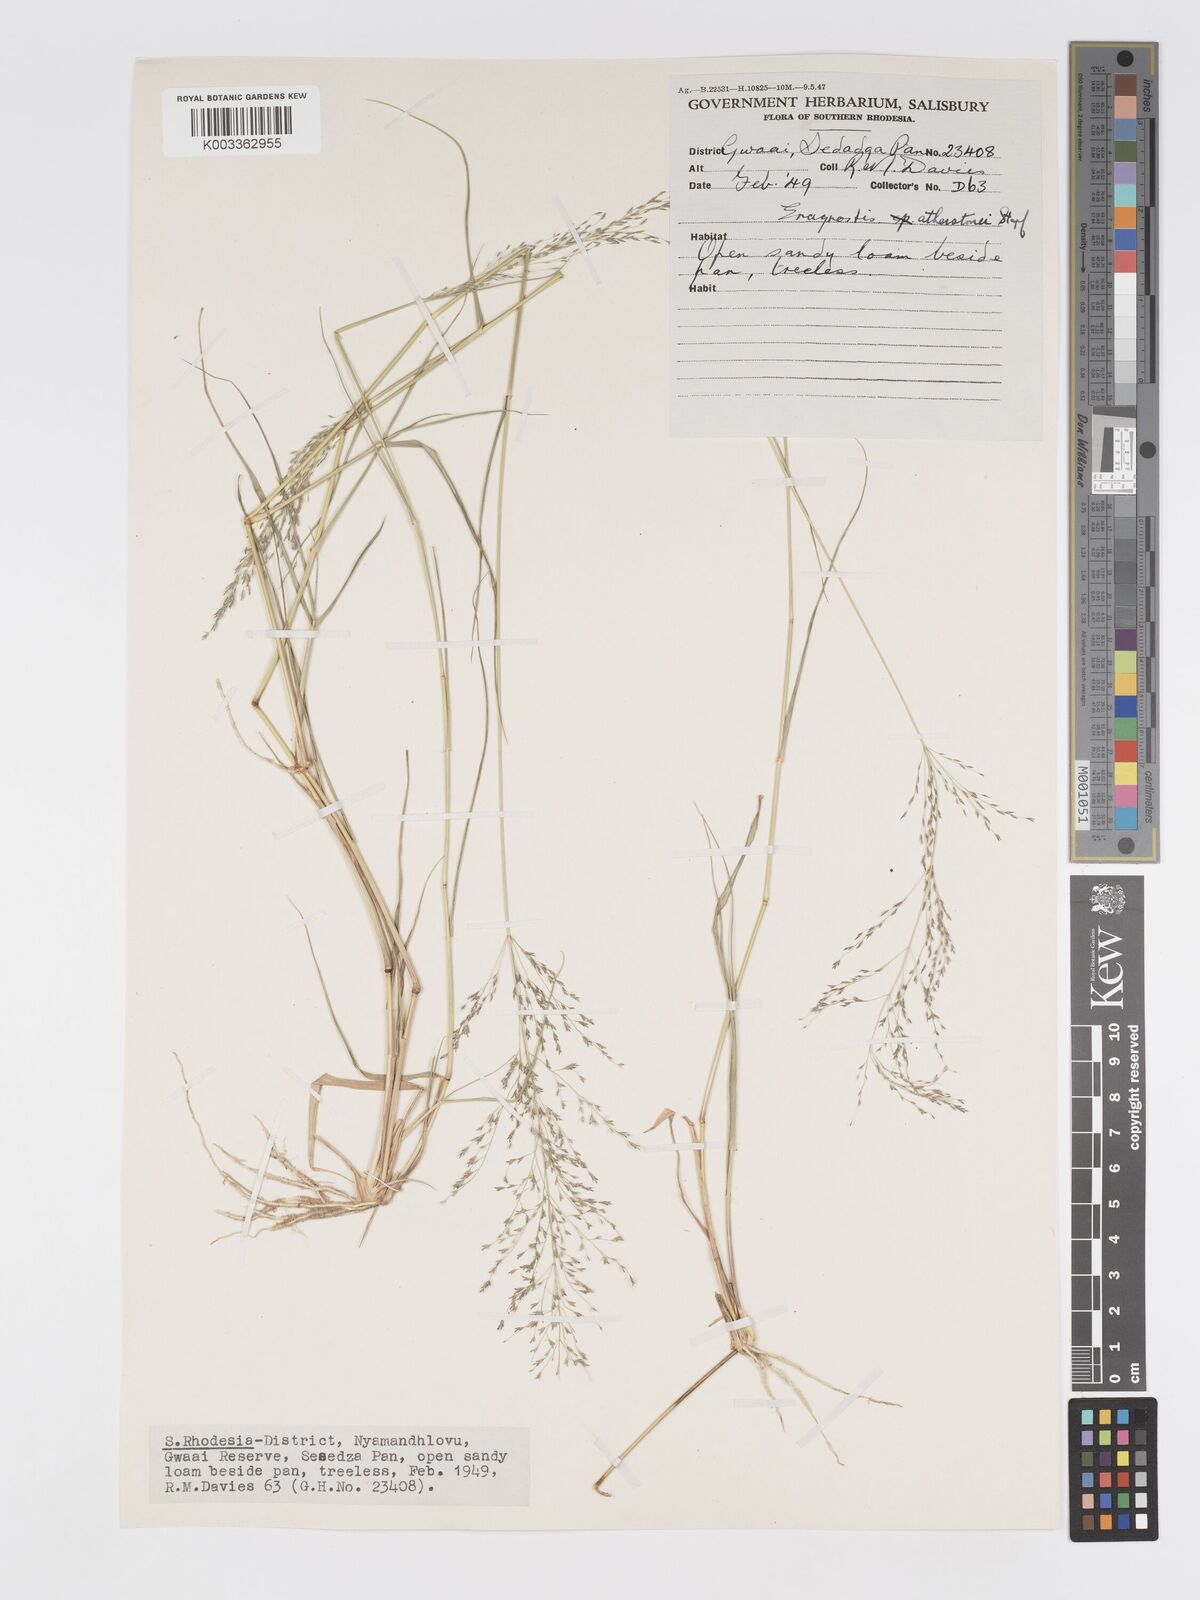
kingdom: Plantae
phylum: Tracheophyta
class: Liliopsida
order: Poales
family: Poaceae
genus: Eragrostis
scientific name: Eragrostis cylindriflora
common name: Cylinderflower lovegrass
